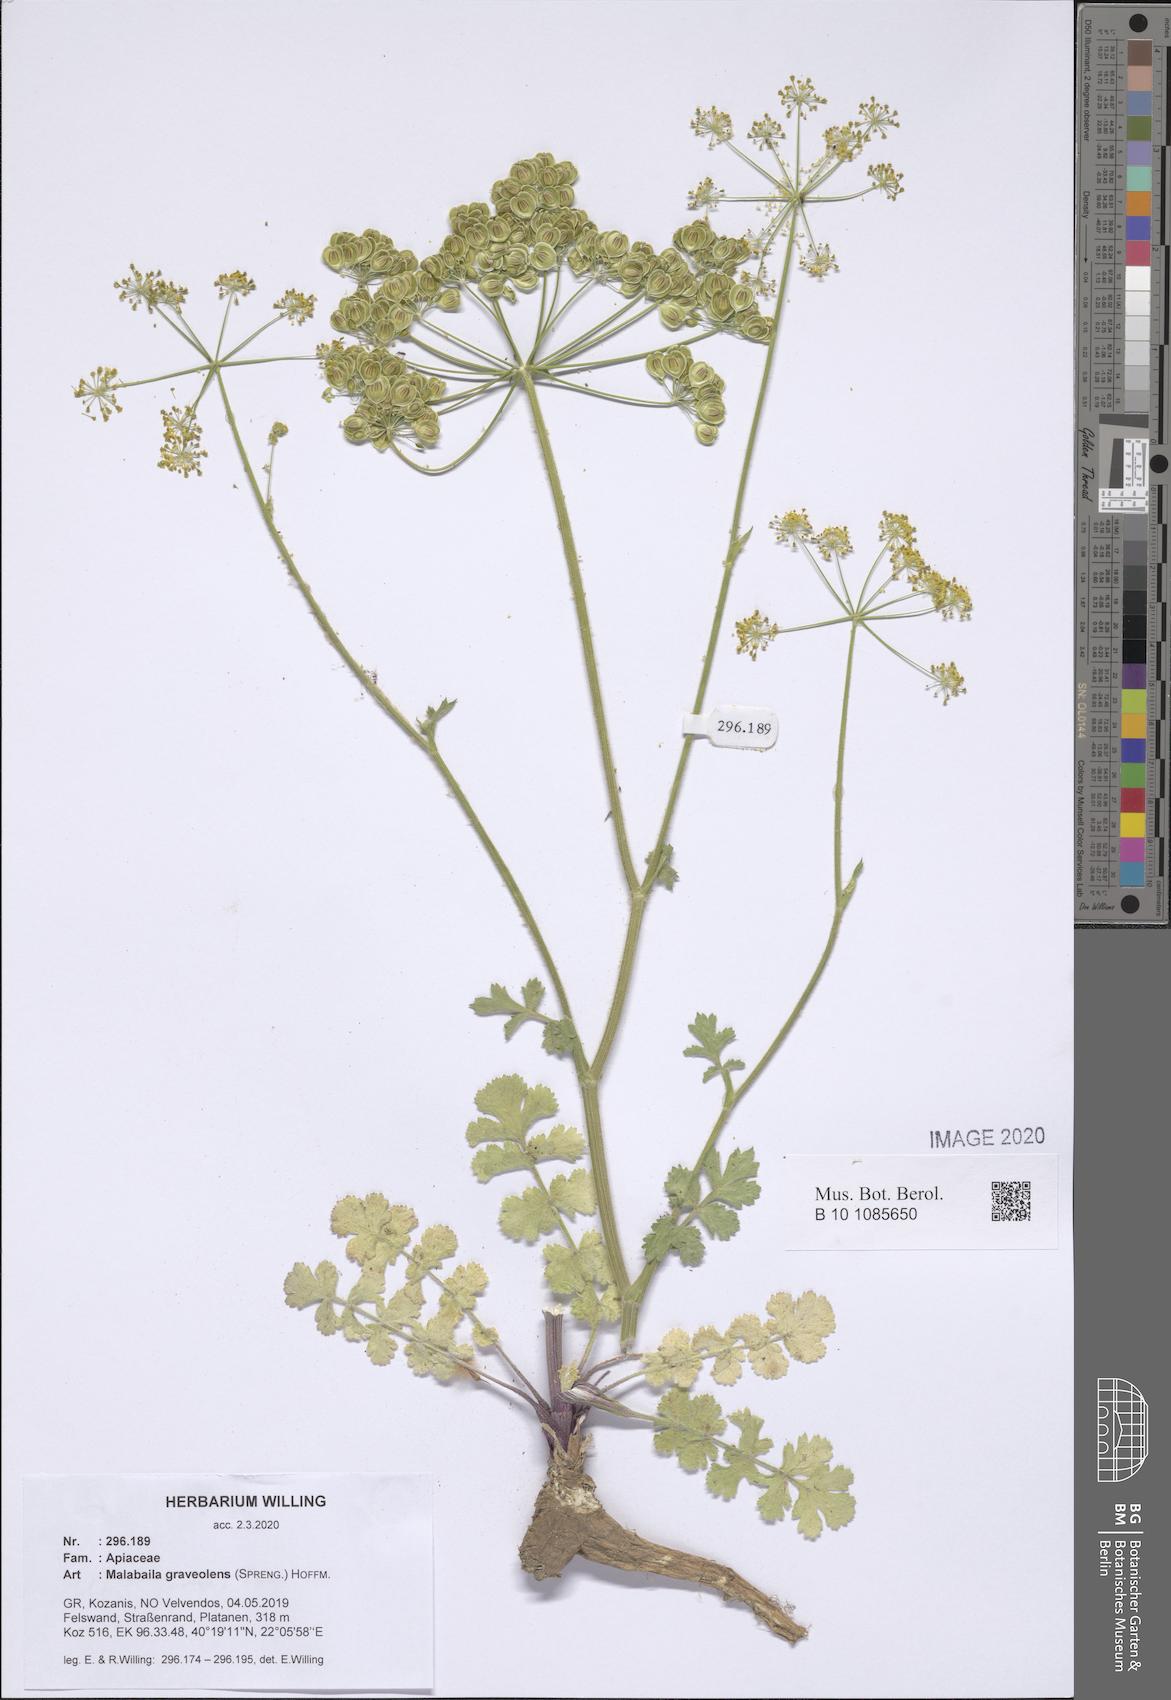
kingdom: Plantae
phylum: Tracheophyta
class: Magnoliopsida
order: Apiales
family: Apiaceae
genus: Pastinaca
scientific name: Pastinaca clausii
